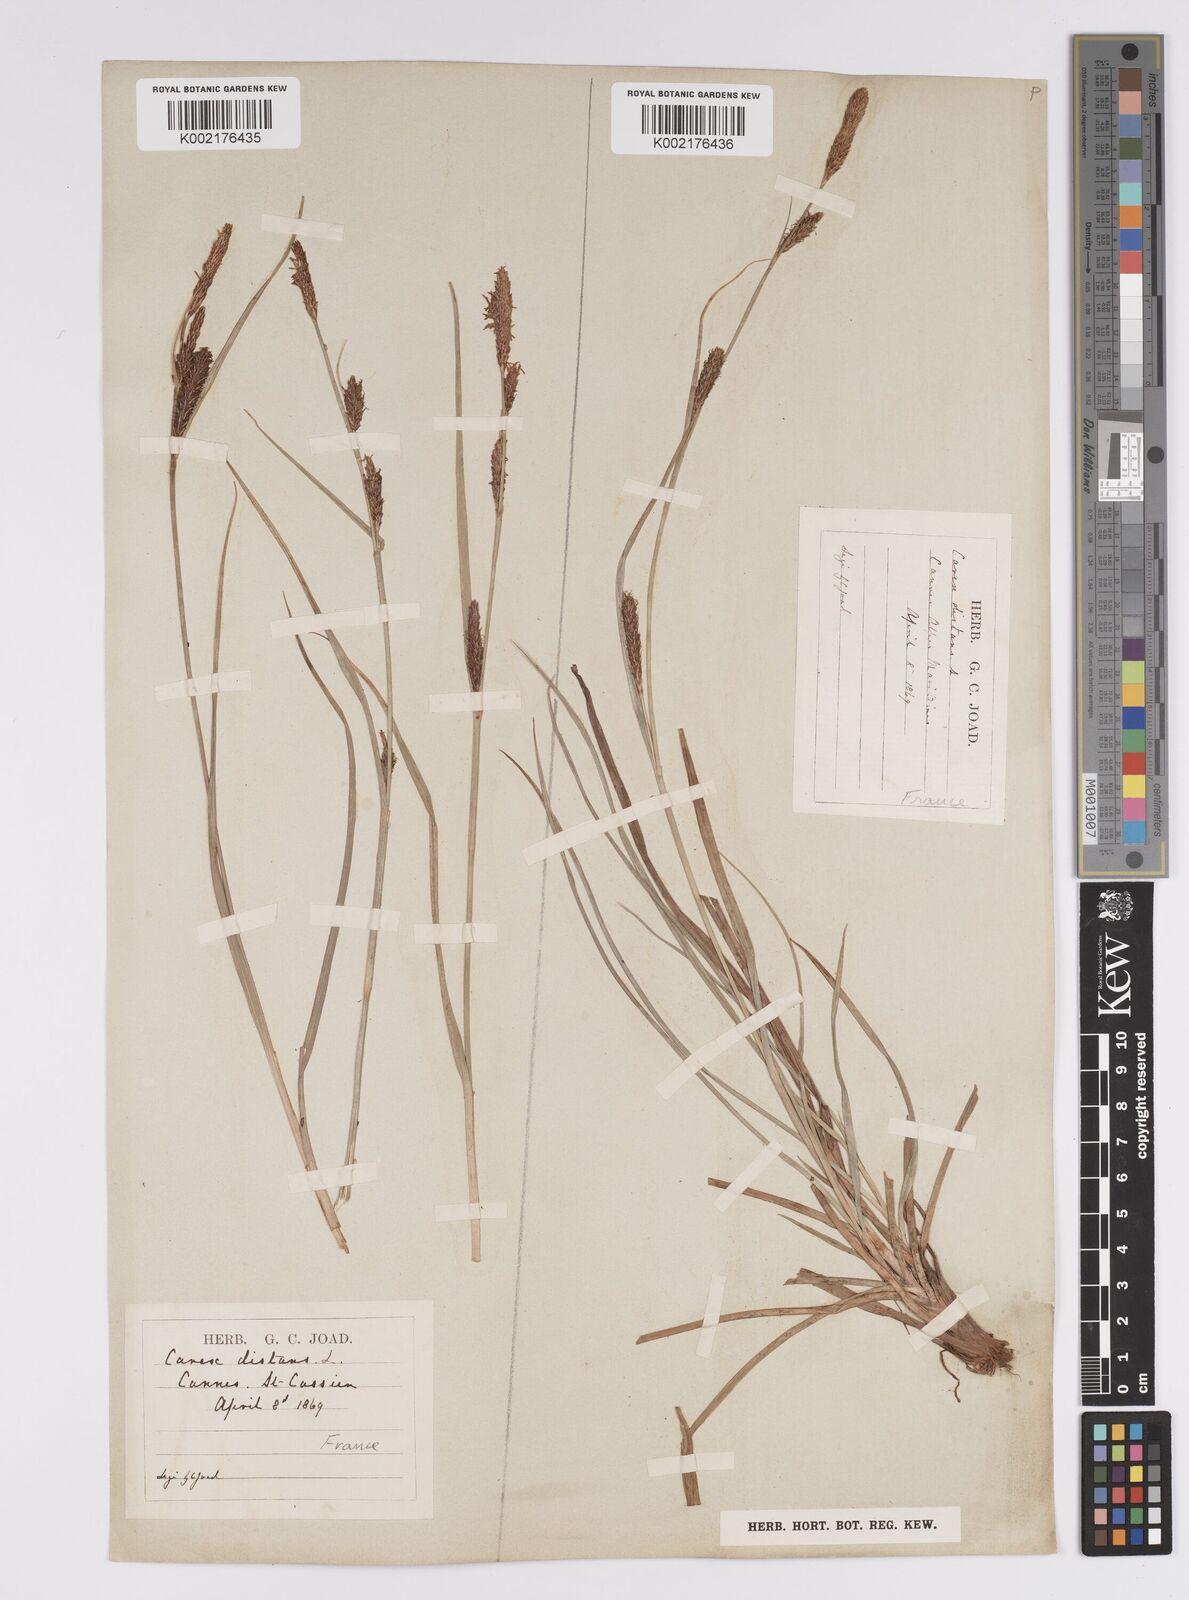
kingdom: Plantae
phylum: Tracheophyta
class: Liliopsida
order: Poales
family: Cyperaceae
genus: Carex
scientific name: Carex distans
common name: Distant sedge
